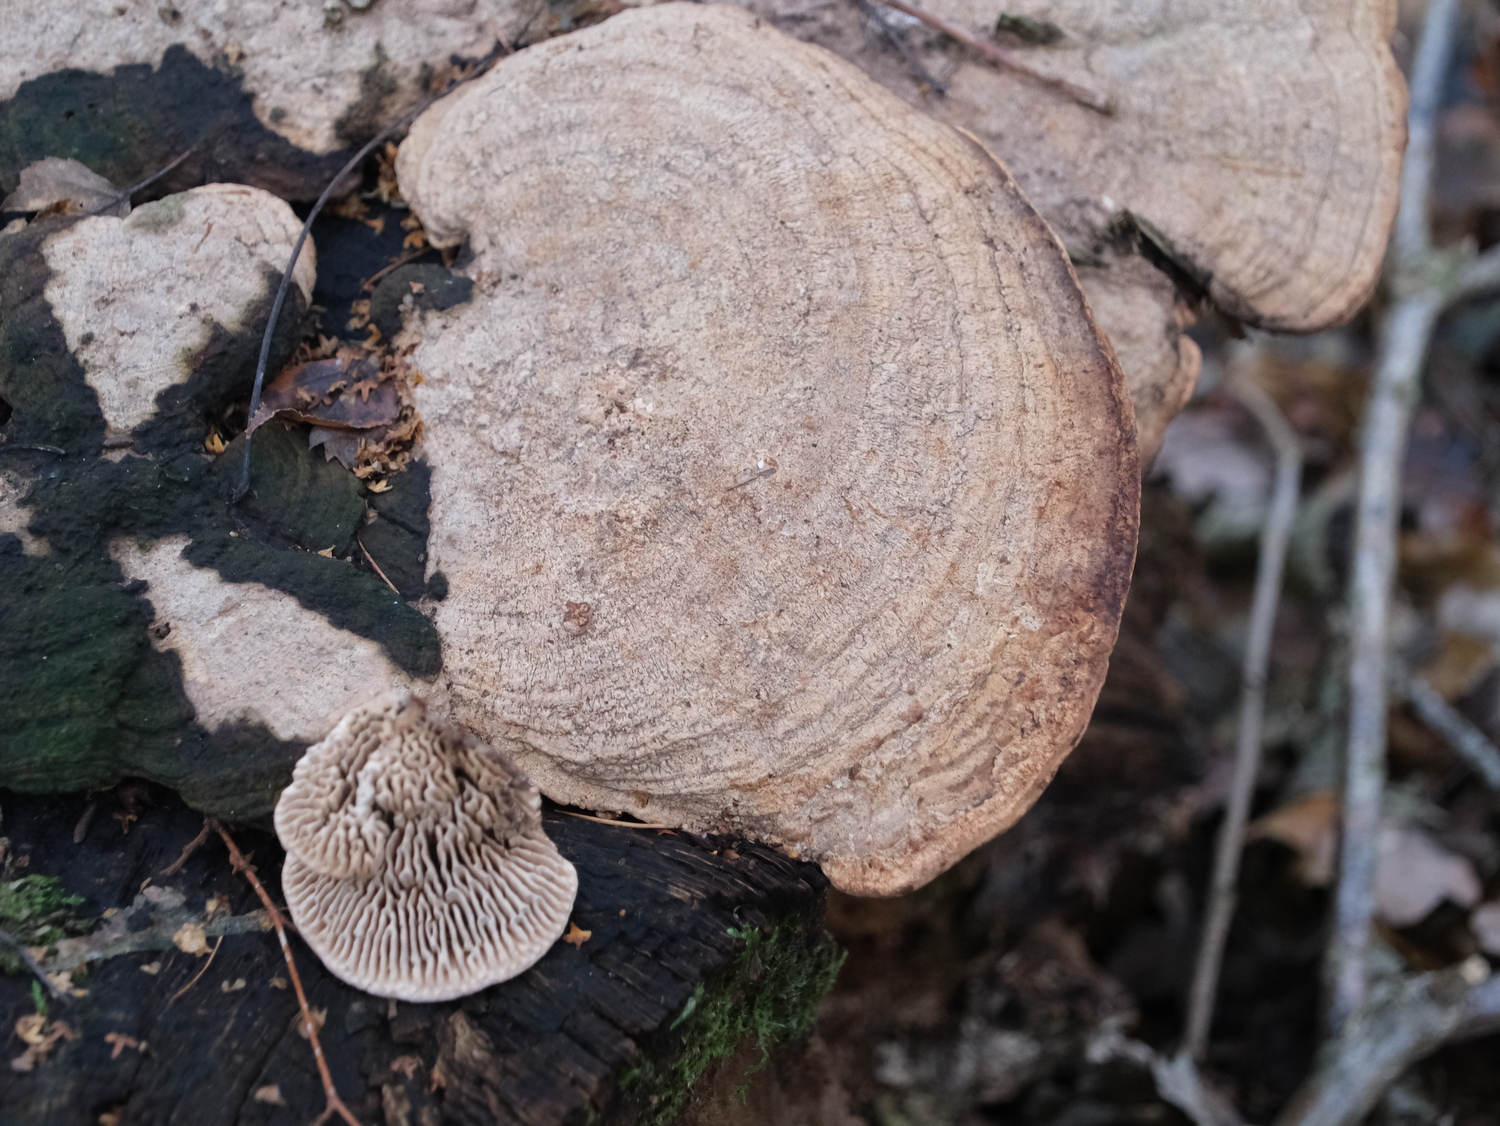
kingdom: Fungi
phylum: Basidiomycota
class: Agaricomycetes
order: Polyporales
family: Fomitopsidaceae
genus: Daedalea
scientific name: Daedalea quercina
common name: ege-labyrintsvamp
